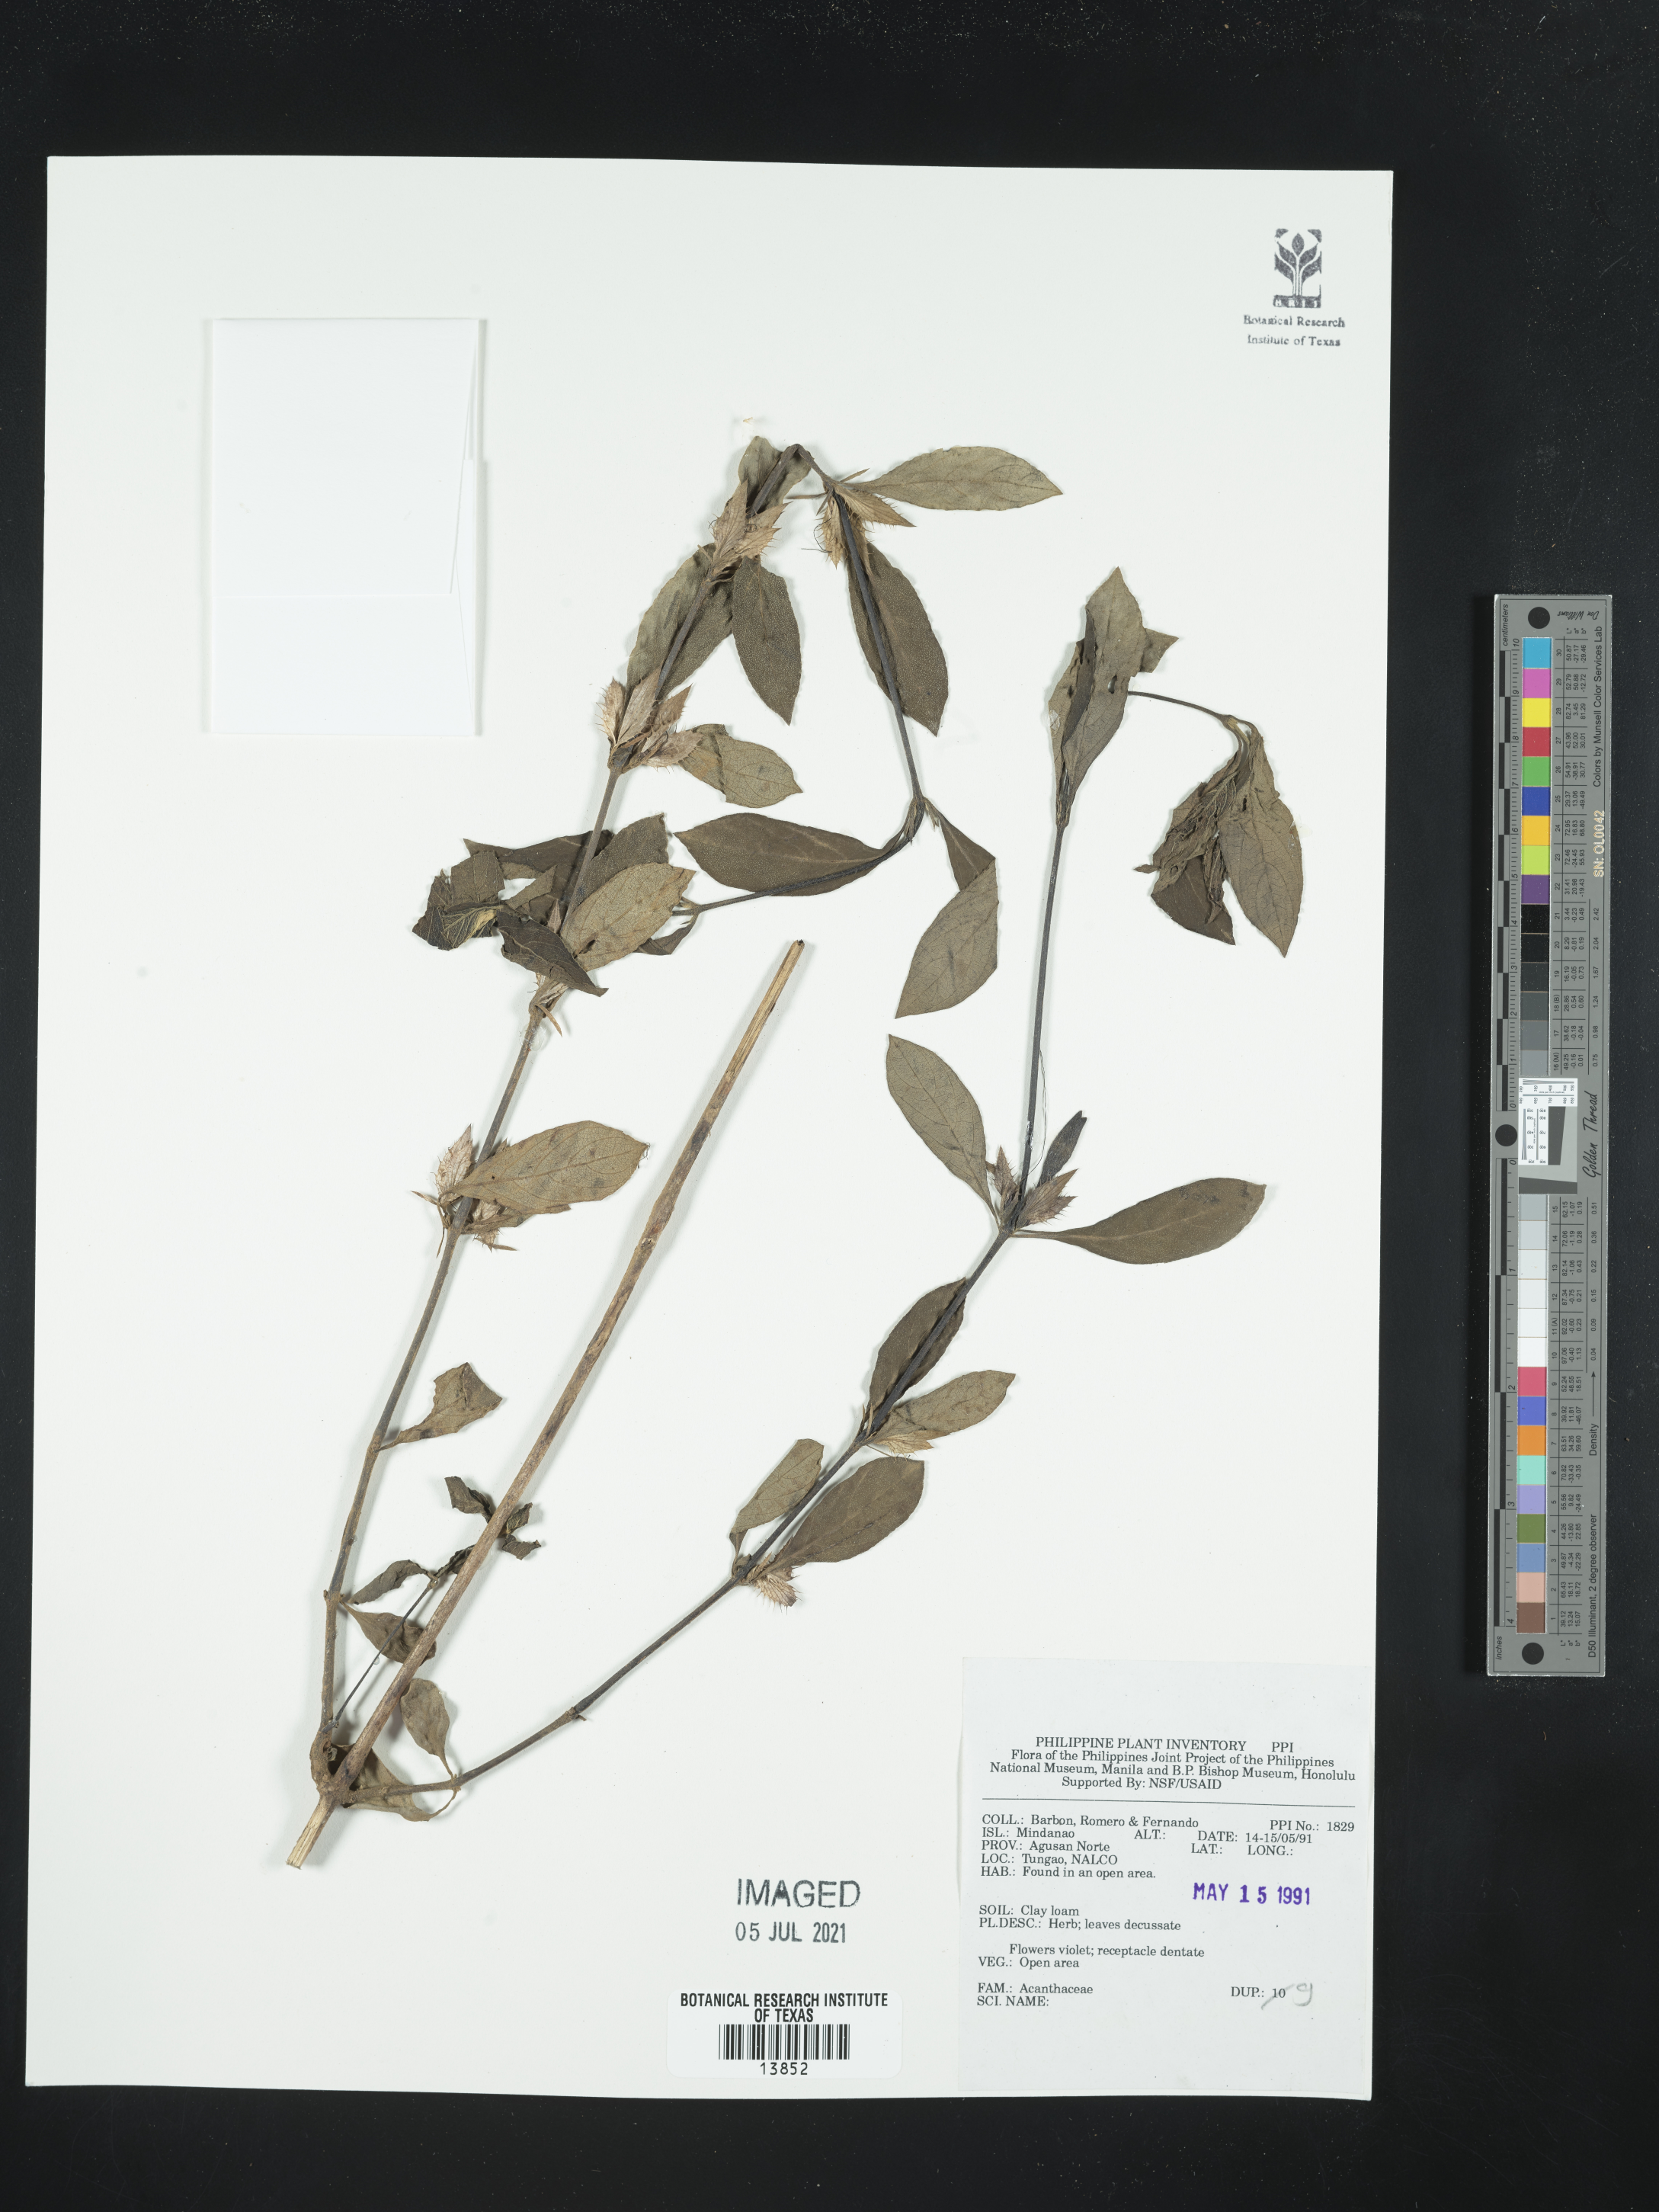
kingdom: Plantae
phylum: Tracheophyta
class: Magnoliopsida
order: Lamiales
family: Acanthaceae
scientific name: Acanthaceae
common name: Acanthaceae
